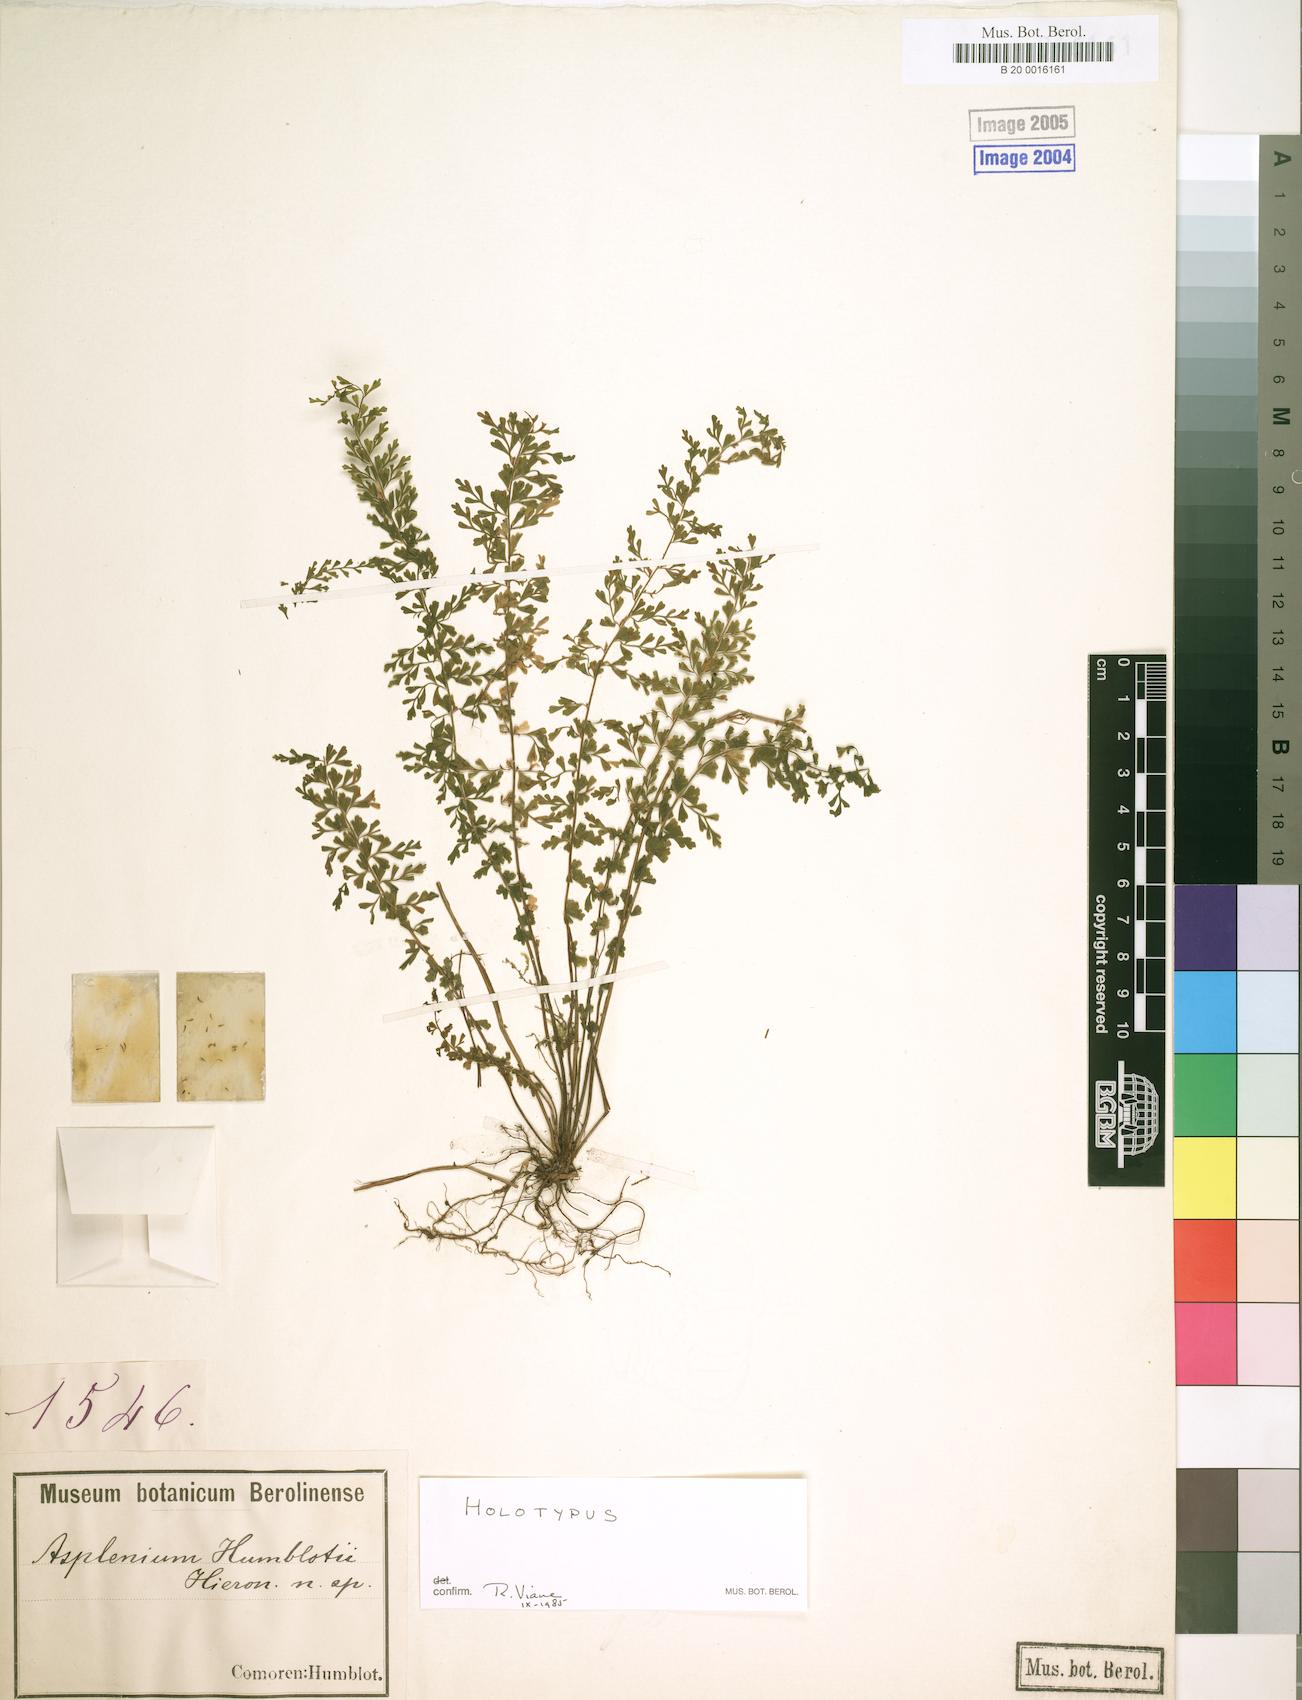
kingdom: Plantae
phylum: Tracheophyta
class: Polypodiopsida
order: Polypodiales
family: Aspleniaceae
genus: Asplenium
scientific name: Asplenium lobatum
